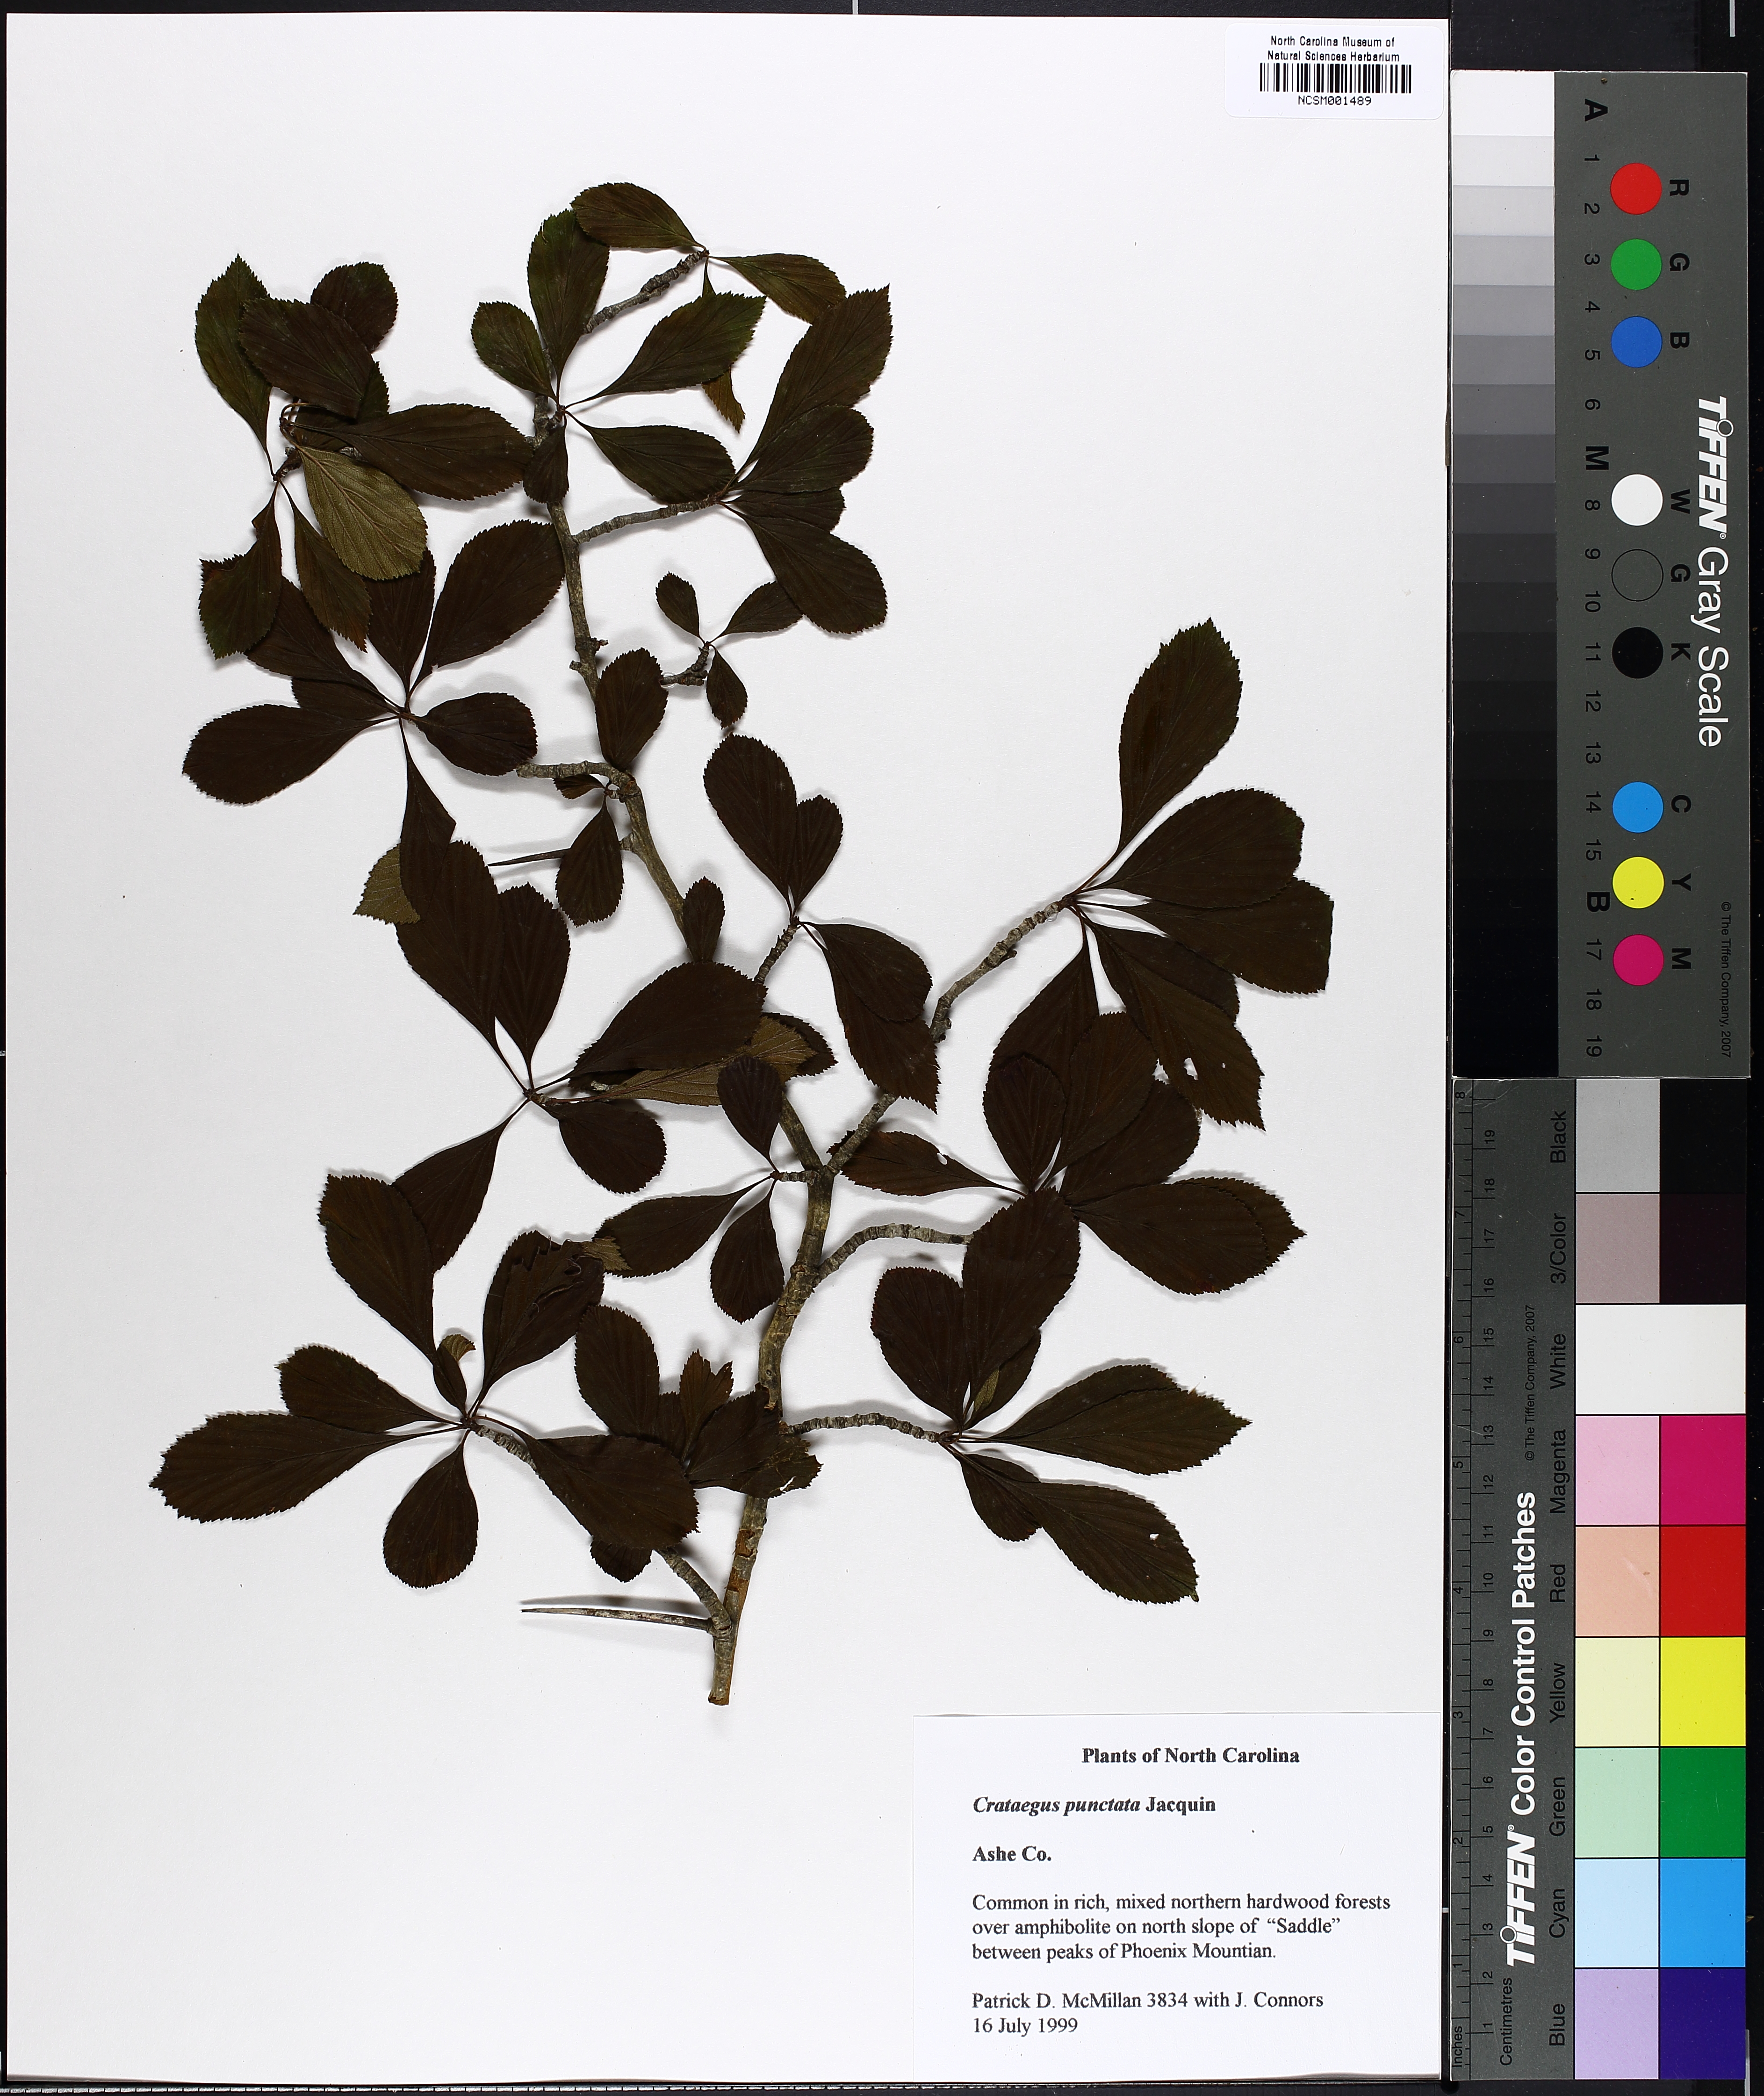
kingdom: Plantae
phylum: Tracheophyta
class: Magnoliopsida
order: Rosales
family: Rosaceae
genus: Crataegus
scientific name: Crataegus punctata
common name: Dotted hawthorn
